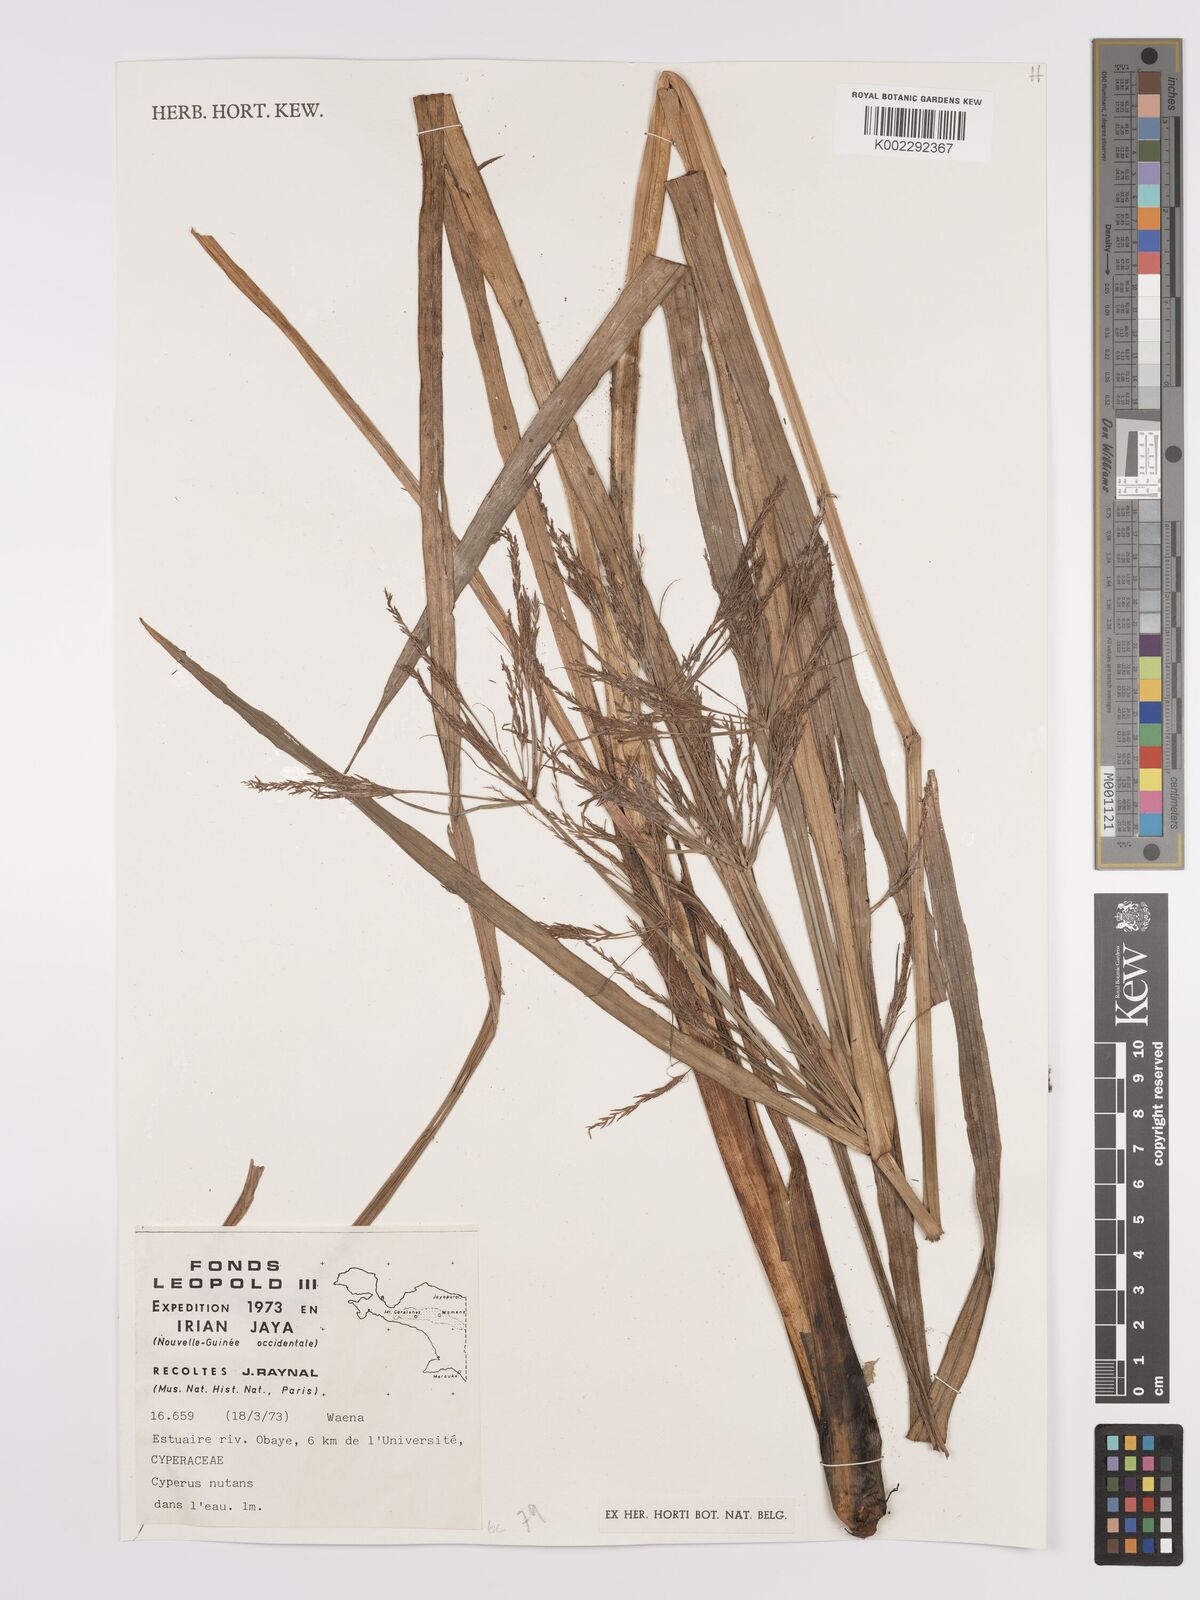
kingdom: Plantae
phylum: Tracheophyta
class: Liliopsida
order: Poales
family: Cyperaceae
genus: Cyperus
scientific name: Cyperus nutans
